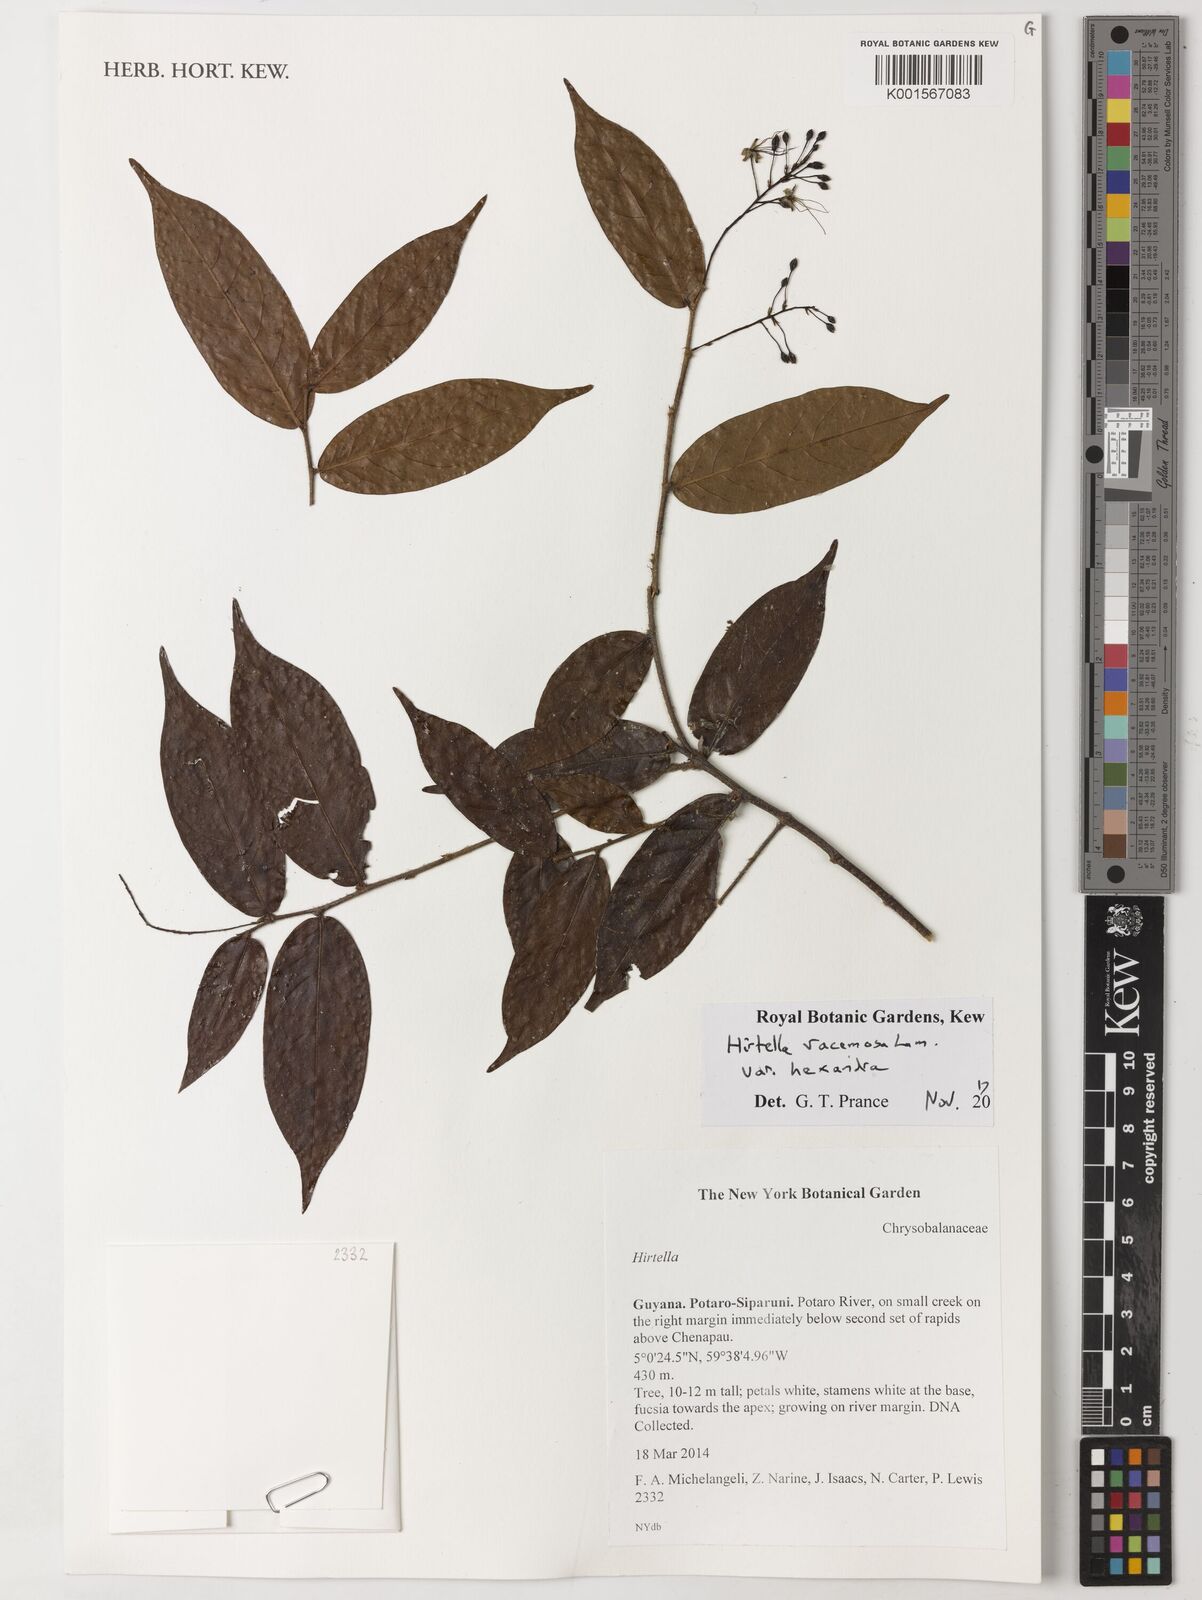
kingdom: Plantae
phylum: Tracheophyta
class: Magnoliopsida
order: Malpighiales
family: Chrysobalanaceae
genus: Hirtella
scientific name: Hirtella racemosa
